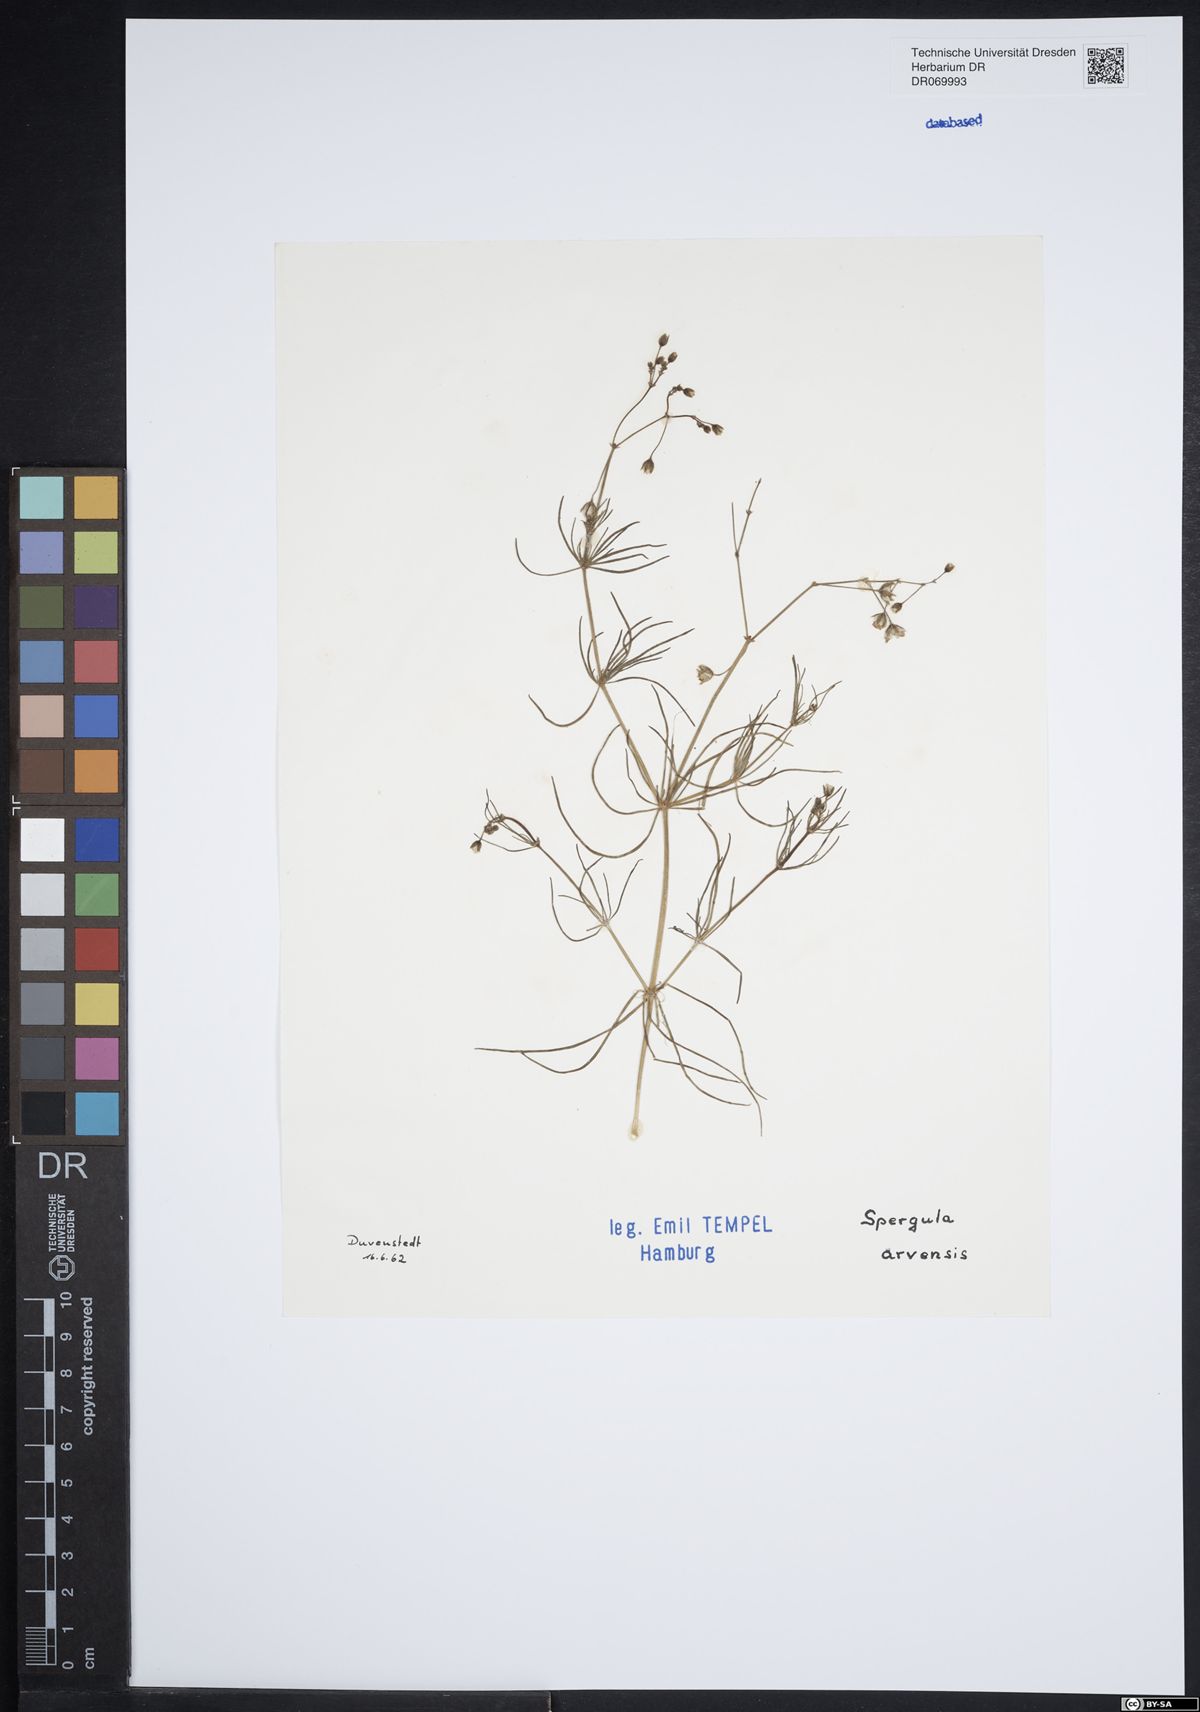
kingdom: Plantae
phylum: Tracheophyta
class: Magnoliopsida
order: Caryophyllales
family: Caryophyllaceae
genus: Spergula
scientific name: Spergula arvensis
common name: Corn spurrey
